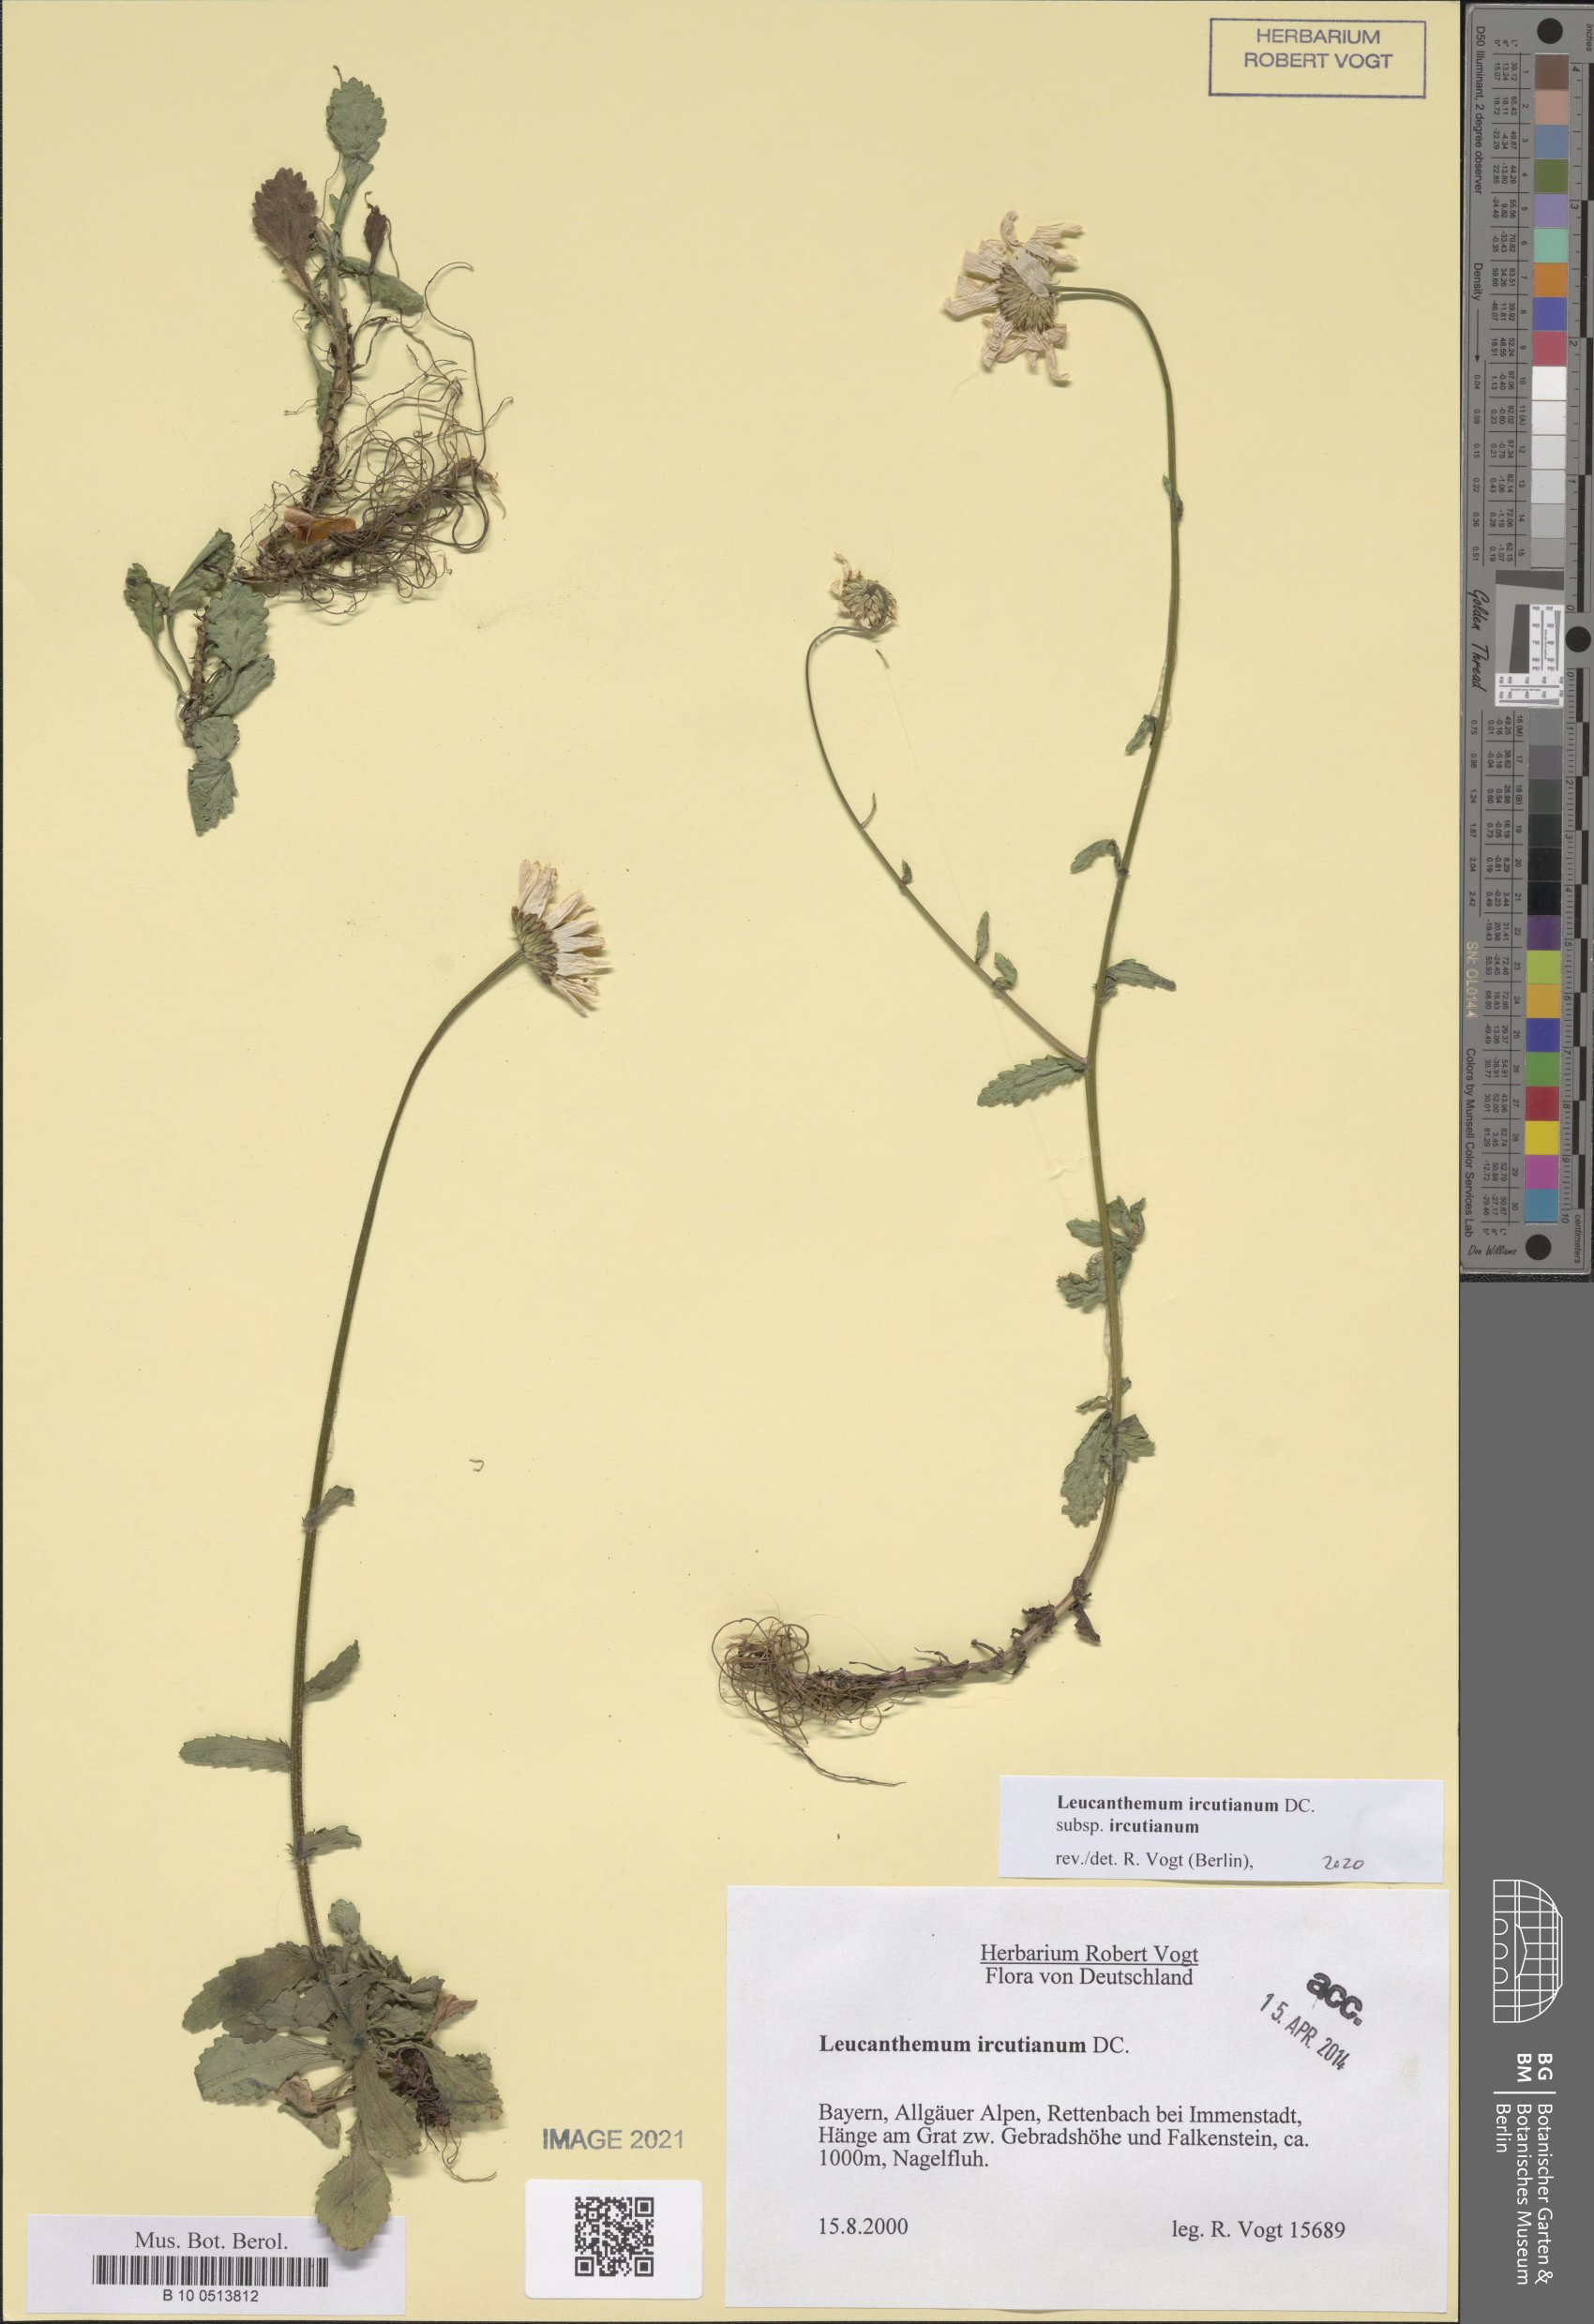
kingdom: Plantae
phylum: Tracheophyta
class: Magnoliopsida
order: Asterales
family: Asteraceae
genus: Leucanthemum
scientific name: Leucanthemum ircutianum
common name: Daisy
